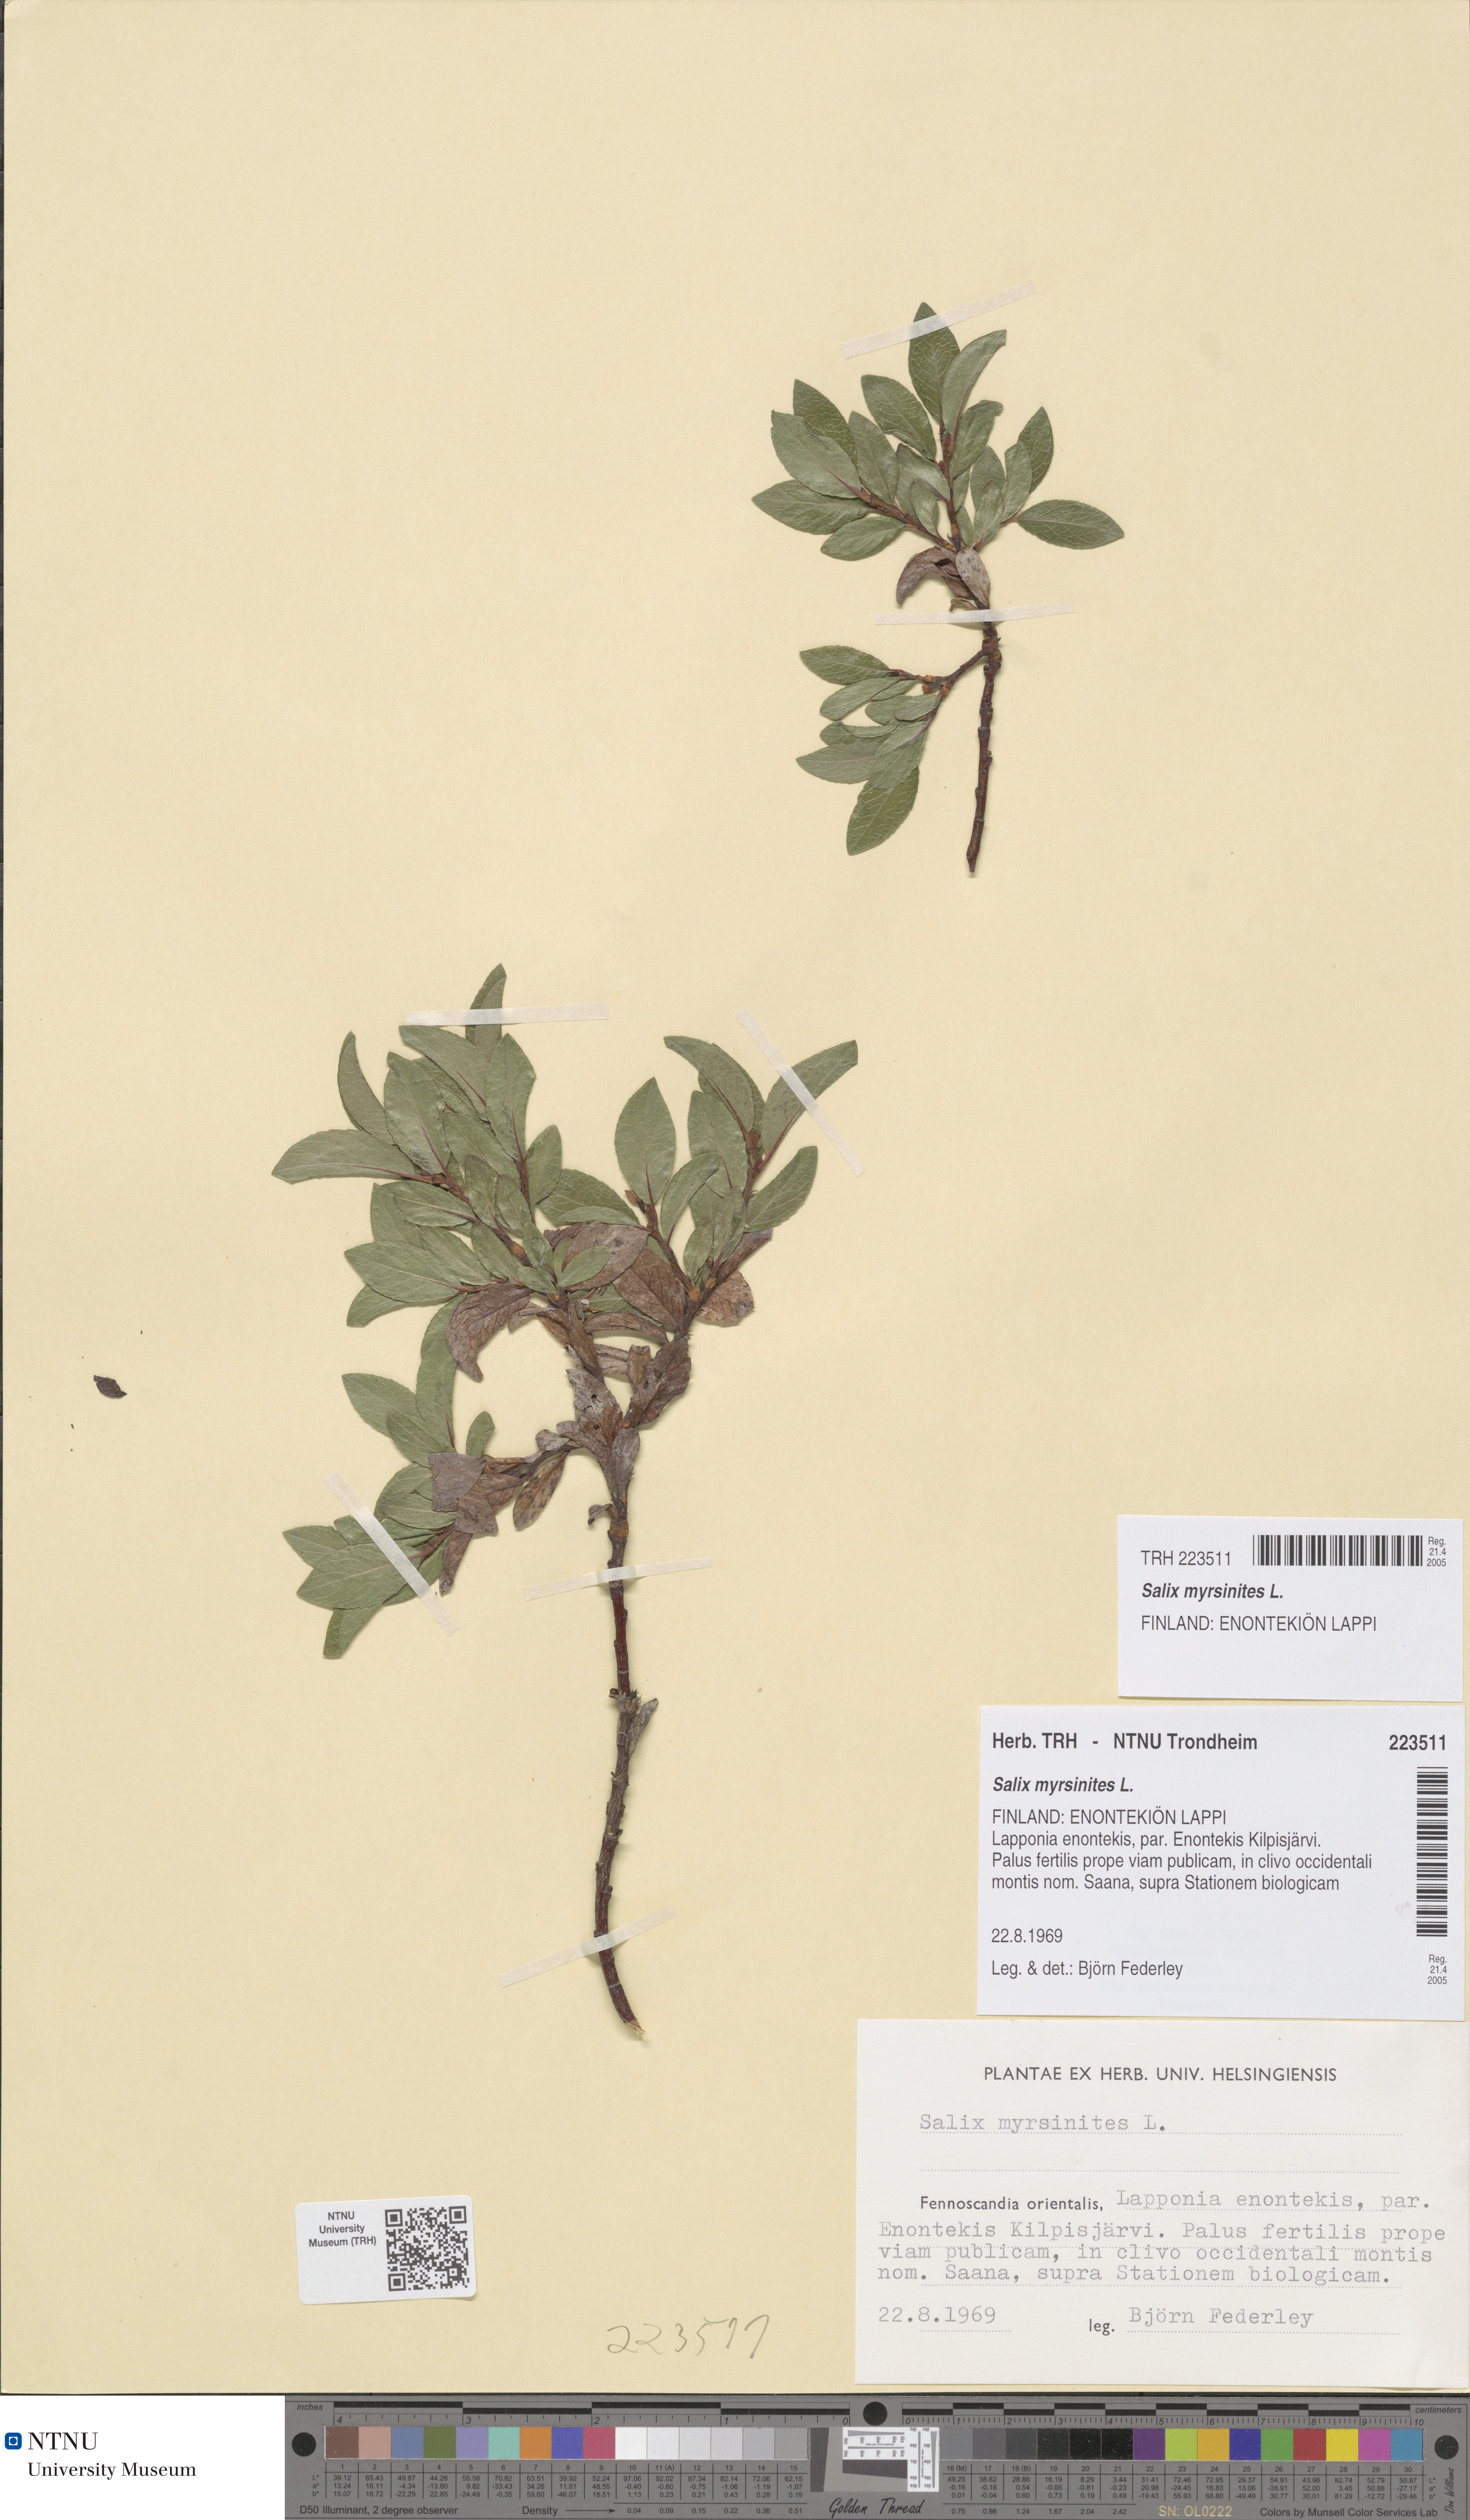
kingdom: Plantae
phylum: Tracheophyta
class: Magnoliopsida
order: Malpighiales
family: Salicaceae
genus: Salix
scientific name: Salix myrsinites
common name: Myrtle willow
